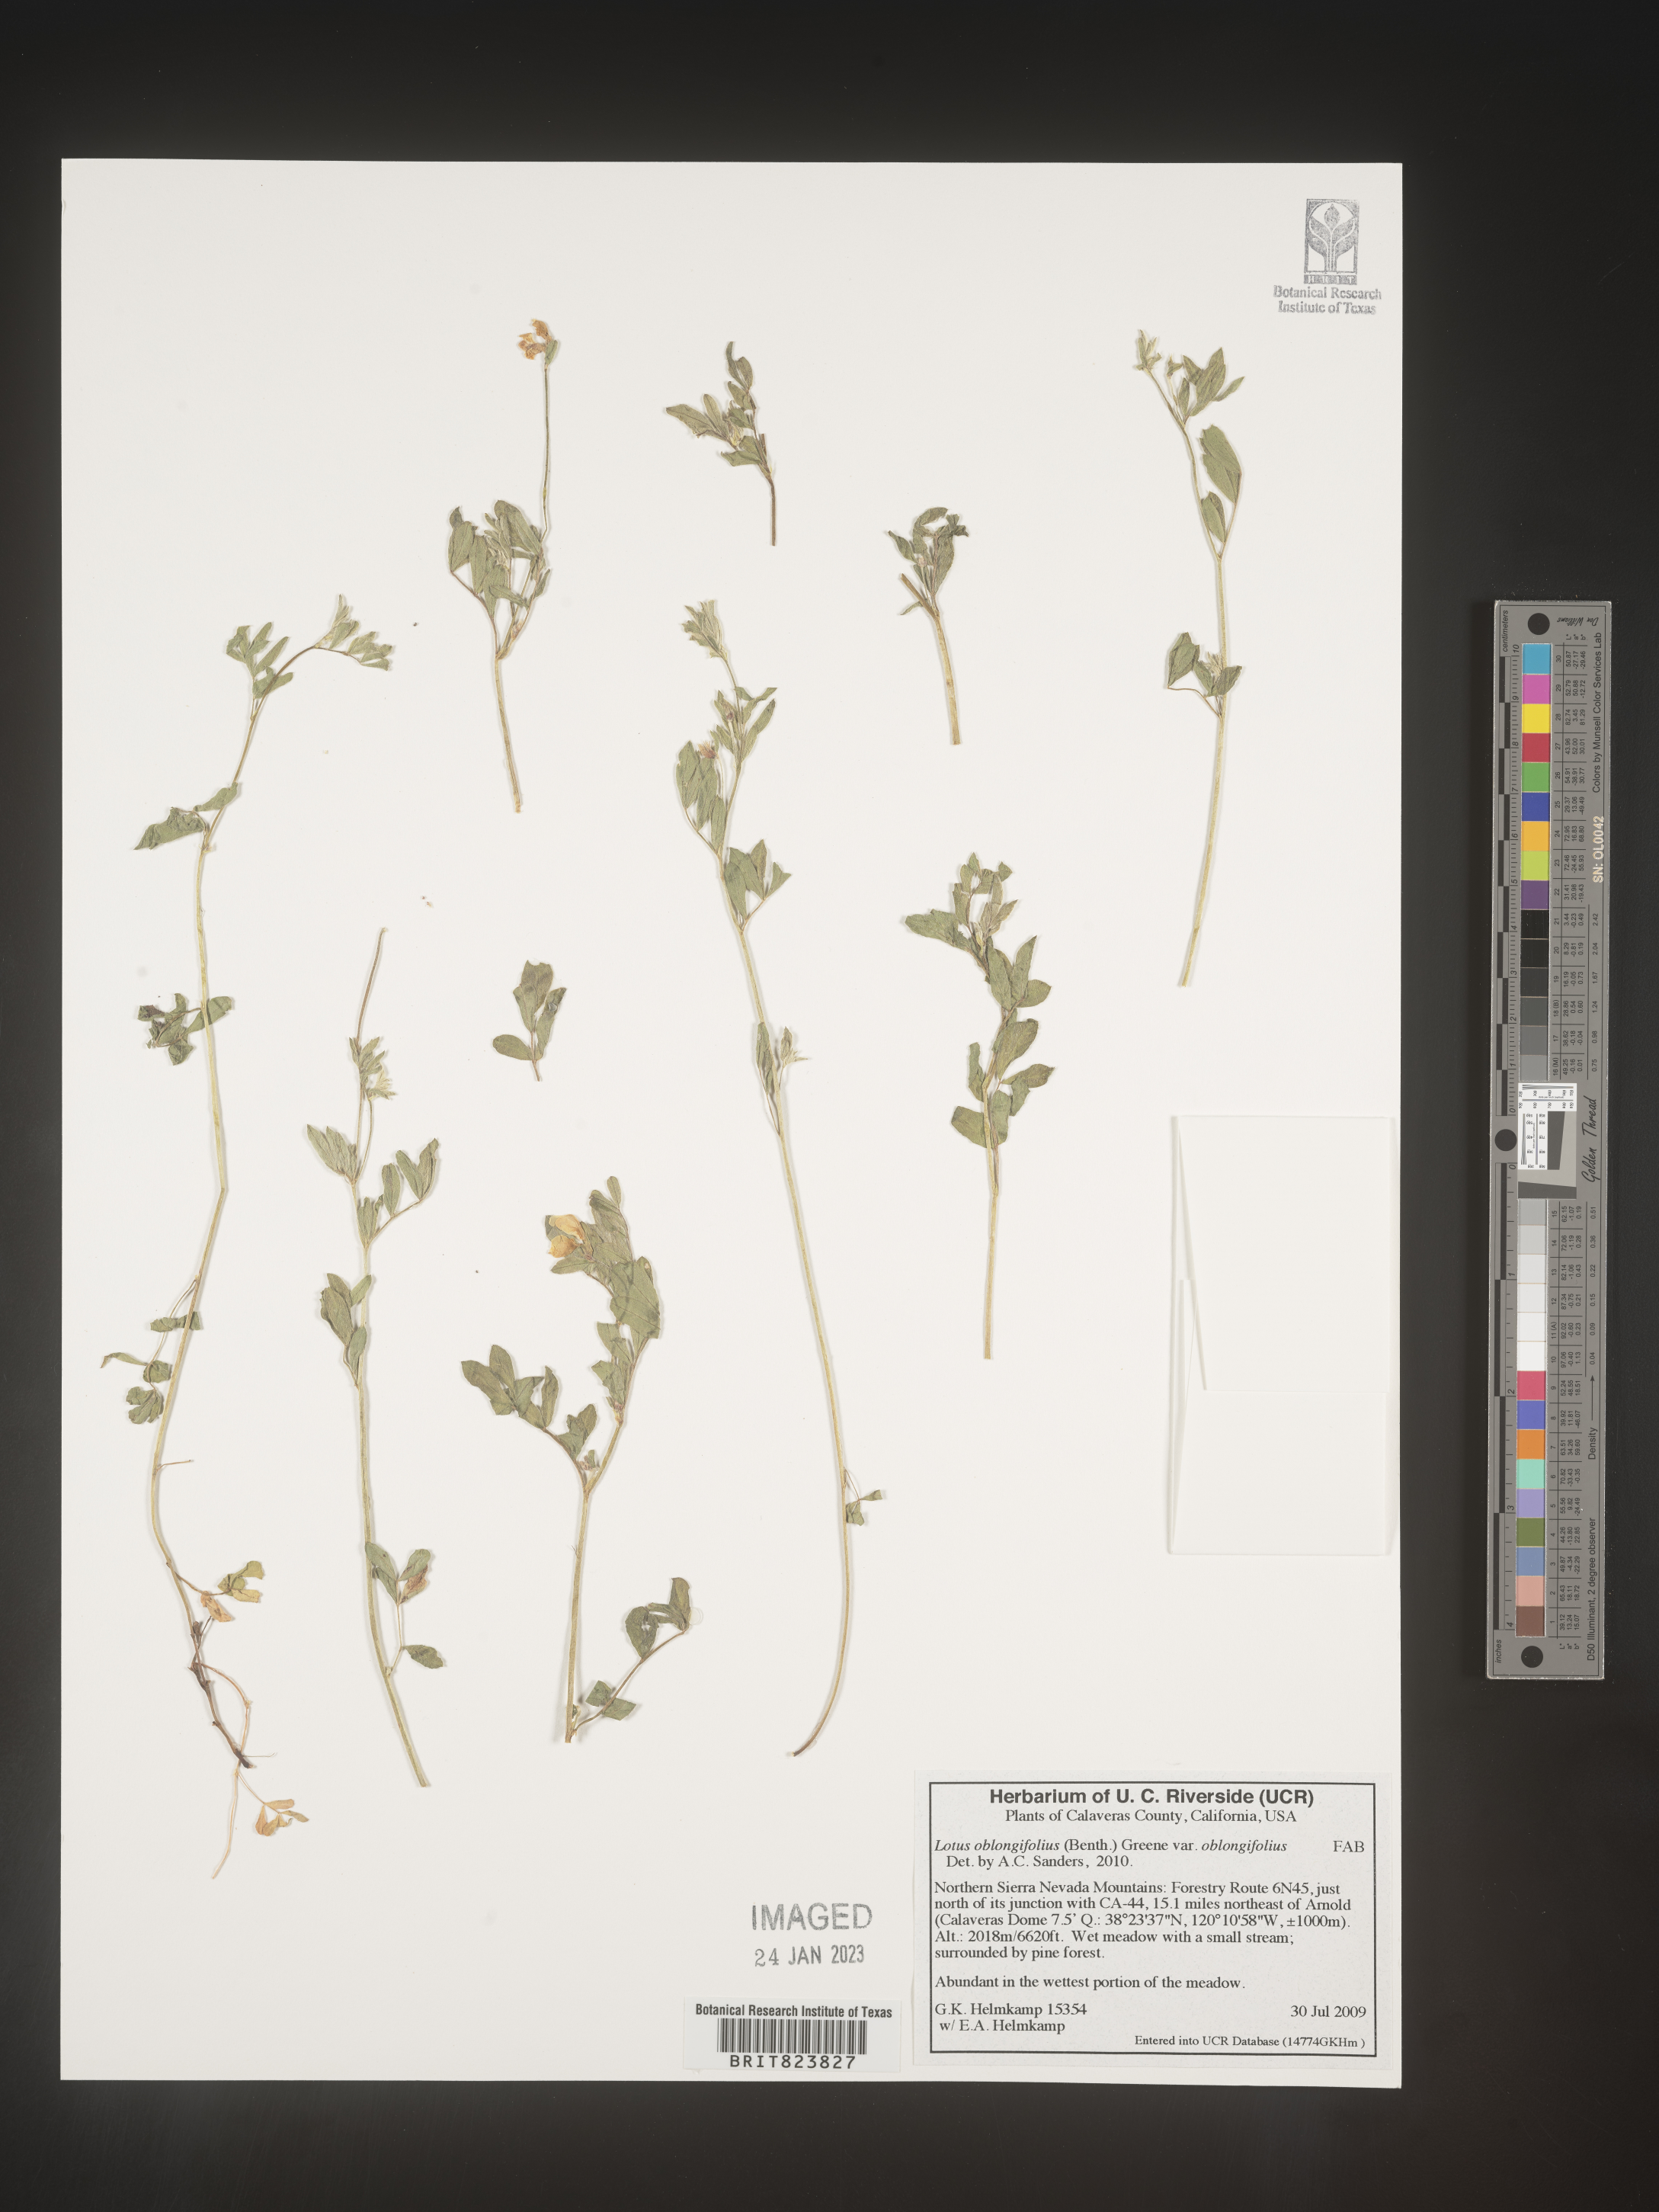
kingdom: Plantae
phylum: Tracheophyta
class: Magnoliopsida
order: Fabales
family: Fabaceae
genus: Hosackia
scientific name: Hosackia oblongifolia
